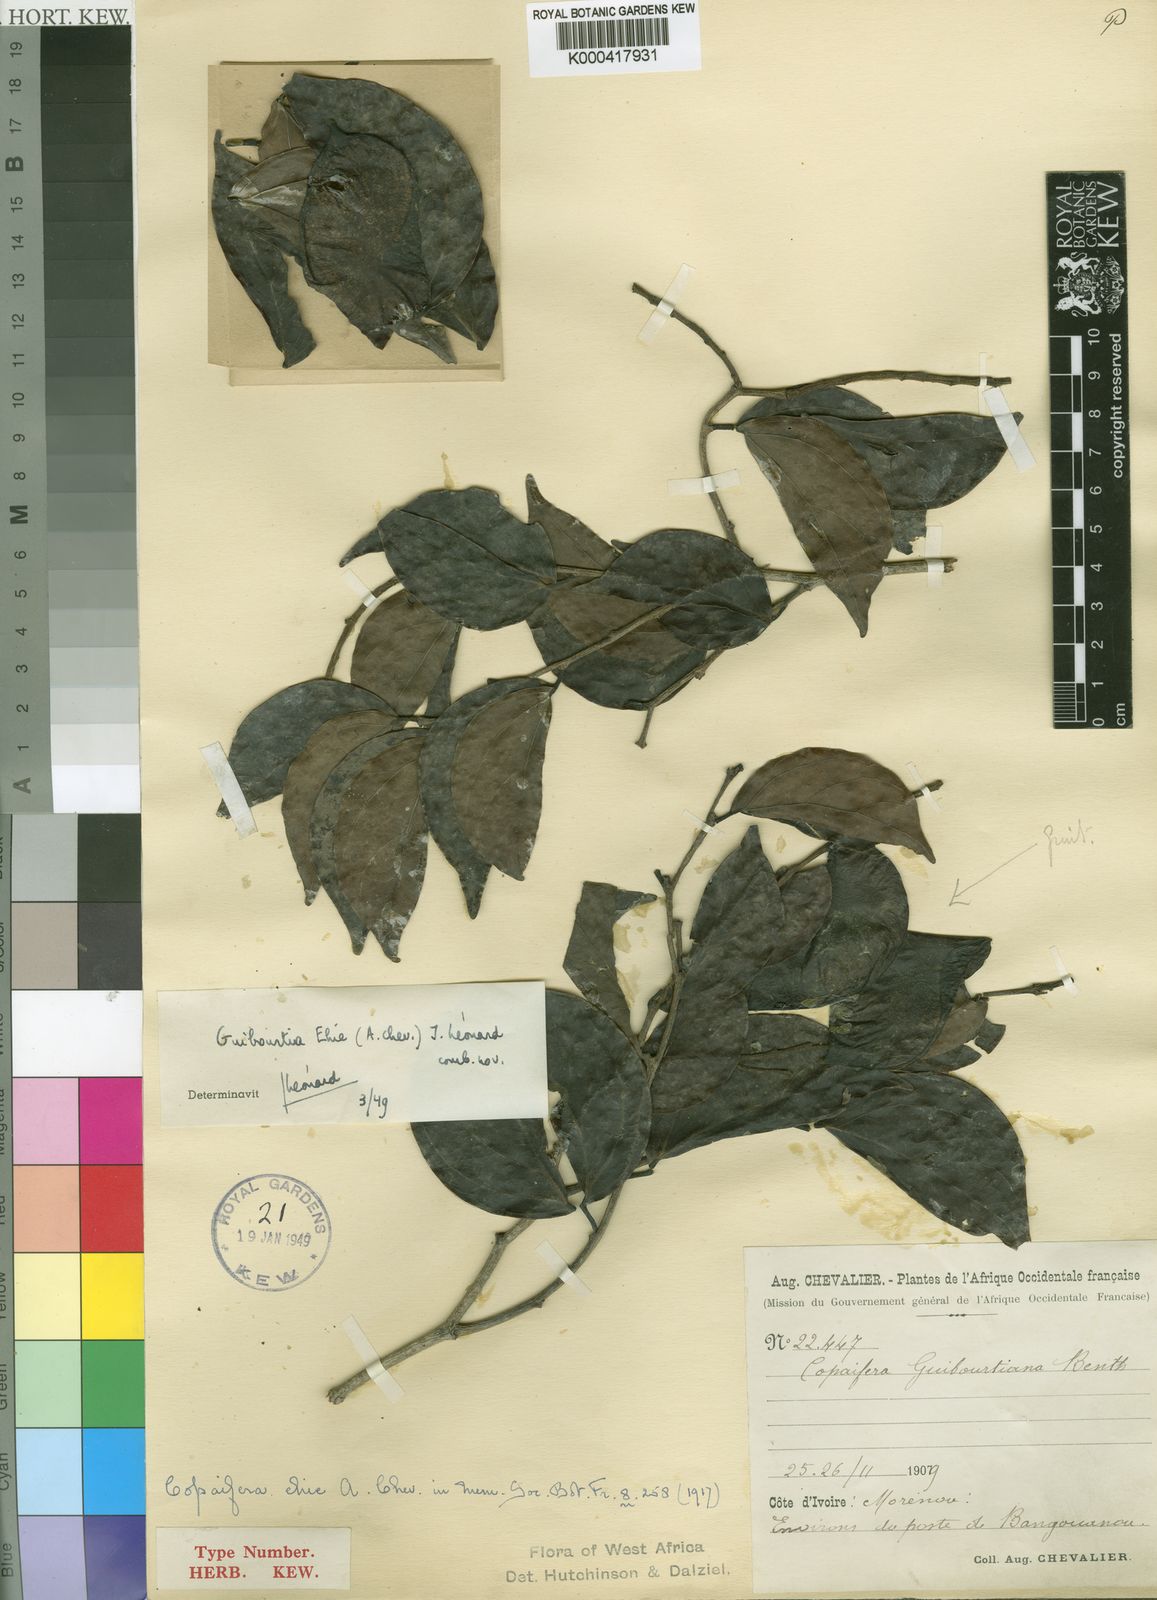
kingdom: Plantae
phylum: Tracheophyta
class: Magnoliopsida
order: Fabales
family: Fabaceae
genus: Guibourtia
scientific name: Guibourtia
